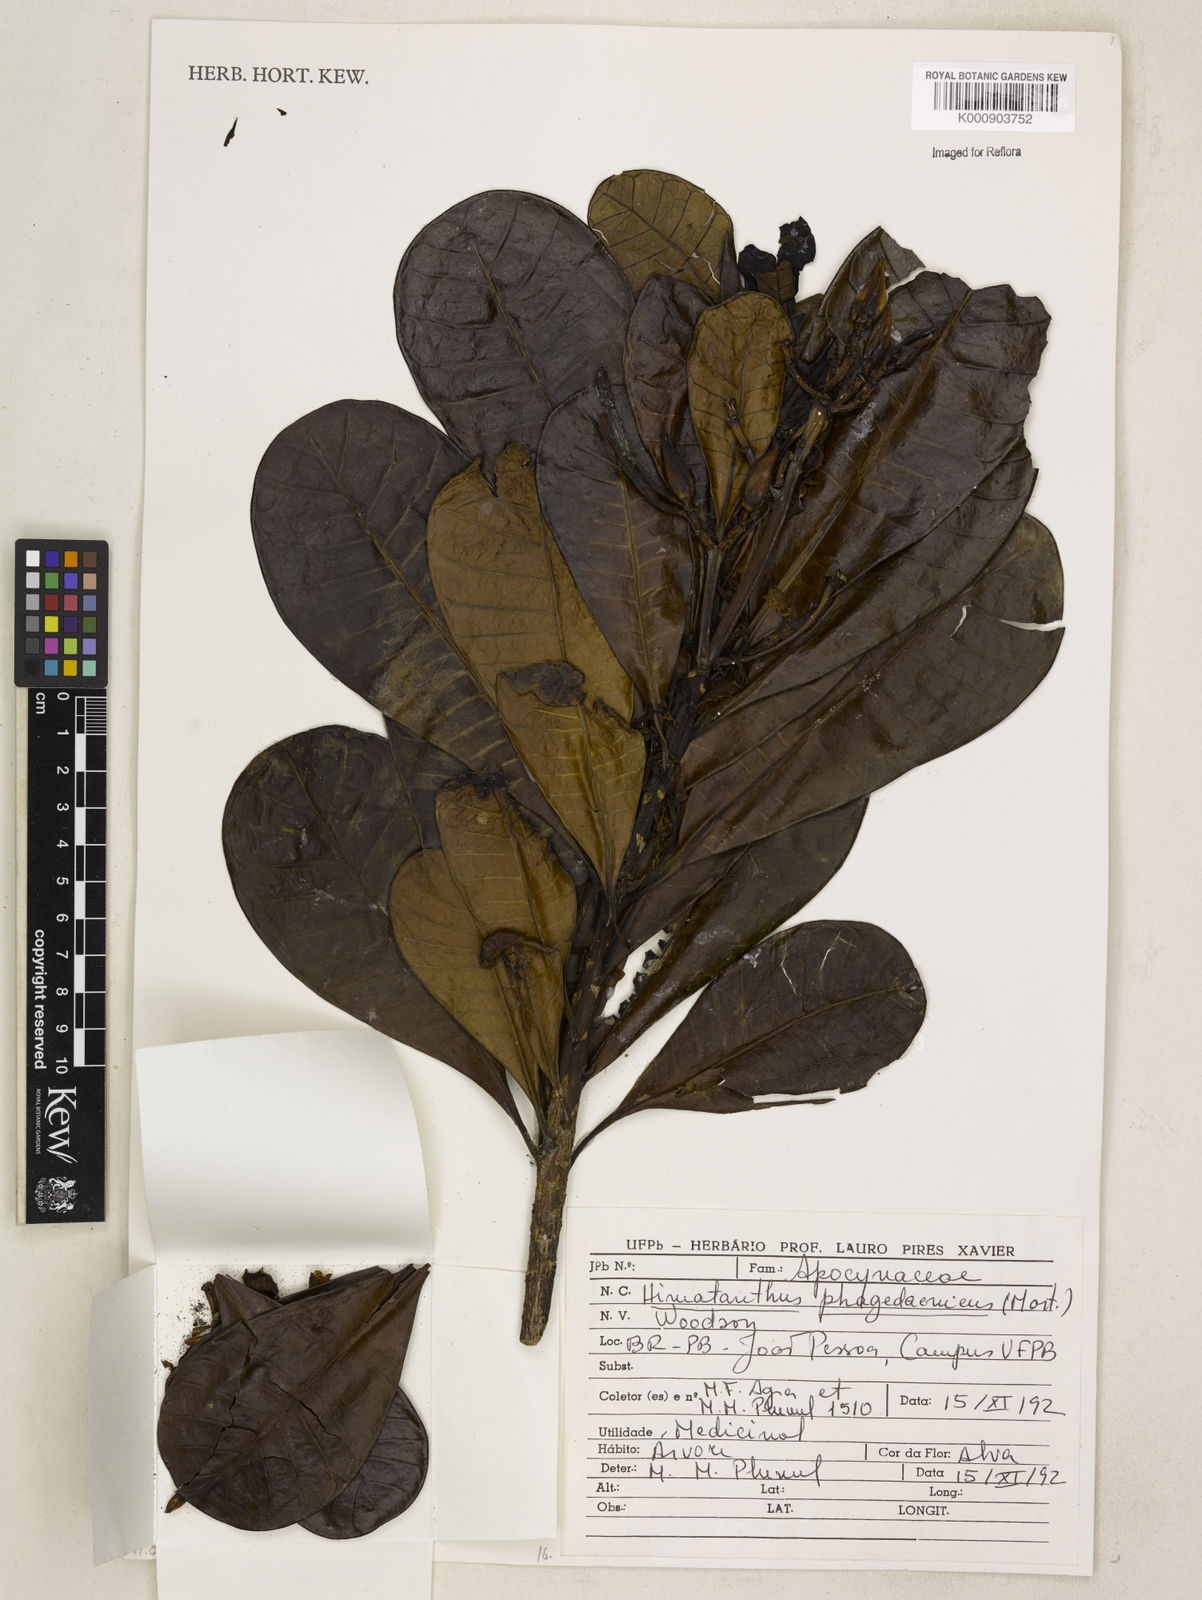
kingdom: Plantae
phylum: Tracheophyta
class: Magnoliopsida
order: Gentianales
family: Apocynaceae
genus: Himatanthus
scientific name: Himatanthus phagedaenicus
